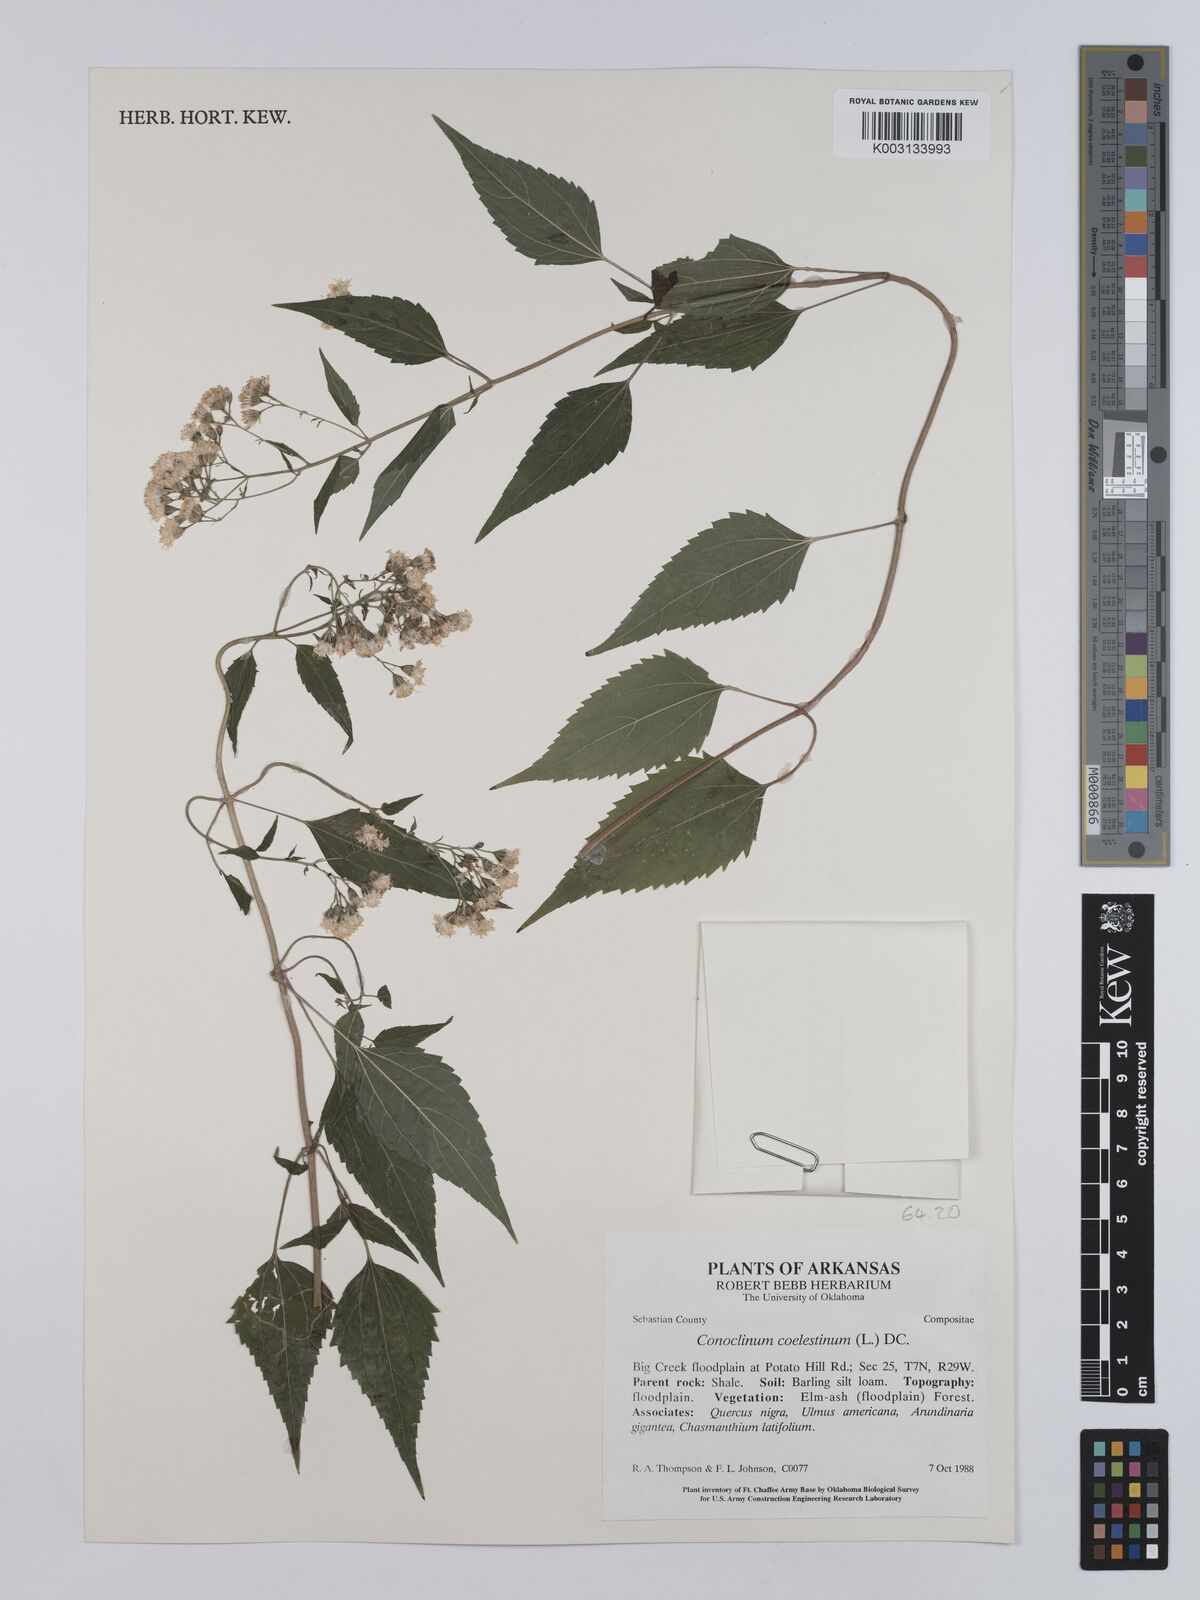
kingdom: Plantae
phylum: Tracheophyta
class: Magnoliopsida
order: Asterales
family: Asteraceae
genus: Conoclinium
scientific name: Conoclinium coelestinum
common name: Blue mistflower
